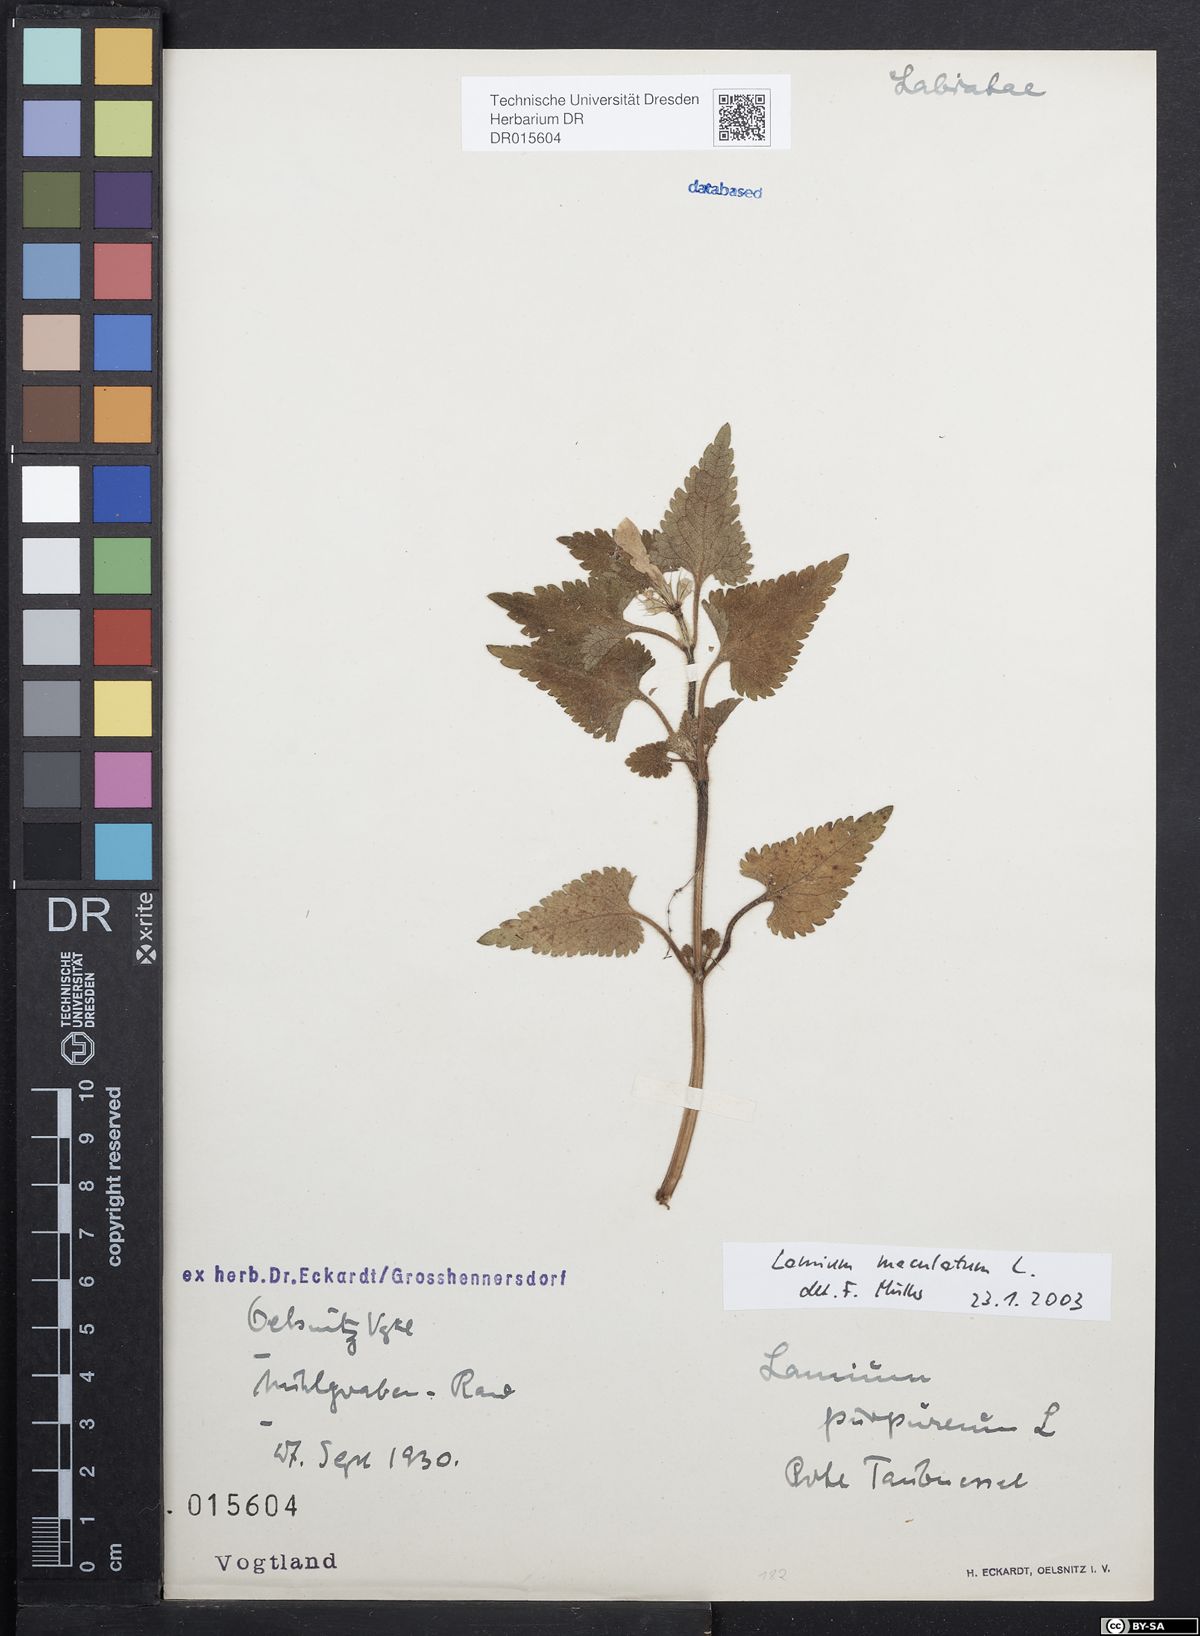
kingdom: Plantae
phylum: Tracheophyta
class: Magnoliopsida
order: Lamiales
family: Lamiaceae
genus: Lamium
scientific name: Lamium maculatum
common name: Spotted dead-nettle
